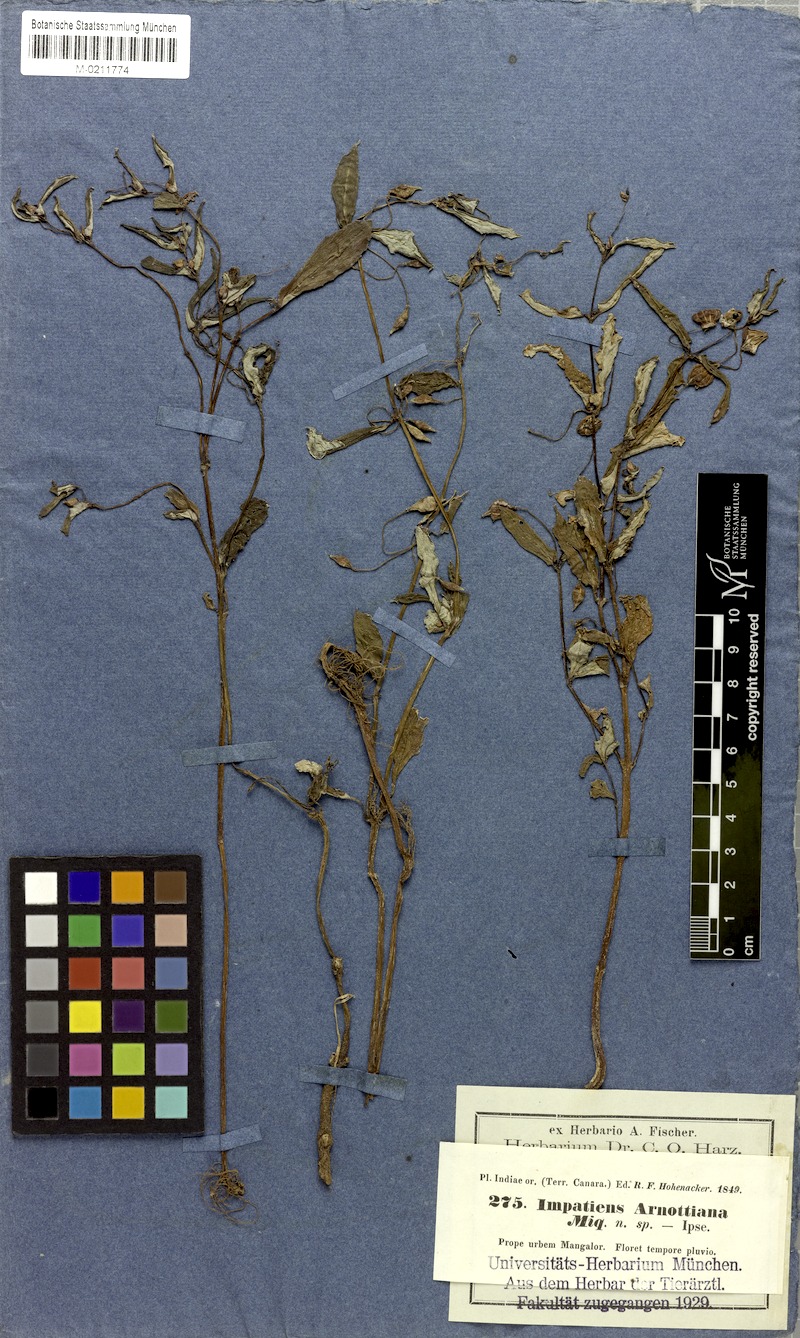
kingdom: Plantae
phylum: Tracheophyta
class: Magnoliopsida
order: Ericales
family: Balsaminaceae
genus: Impatiens
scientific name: Impatiens diversifolia
